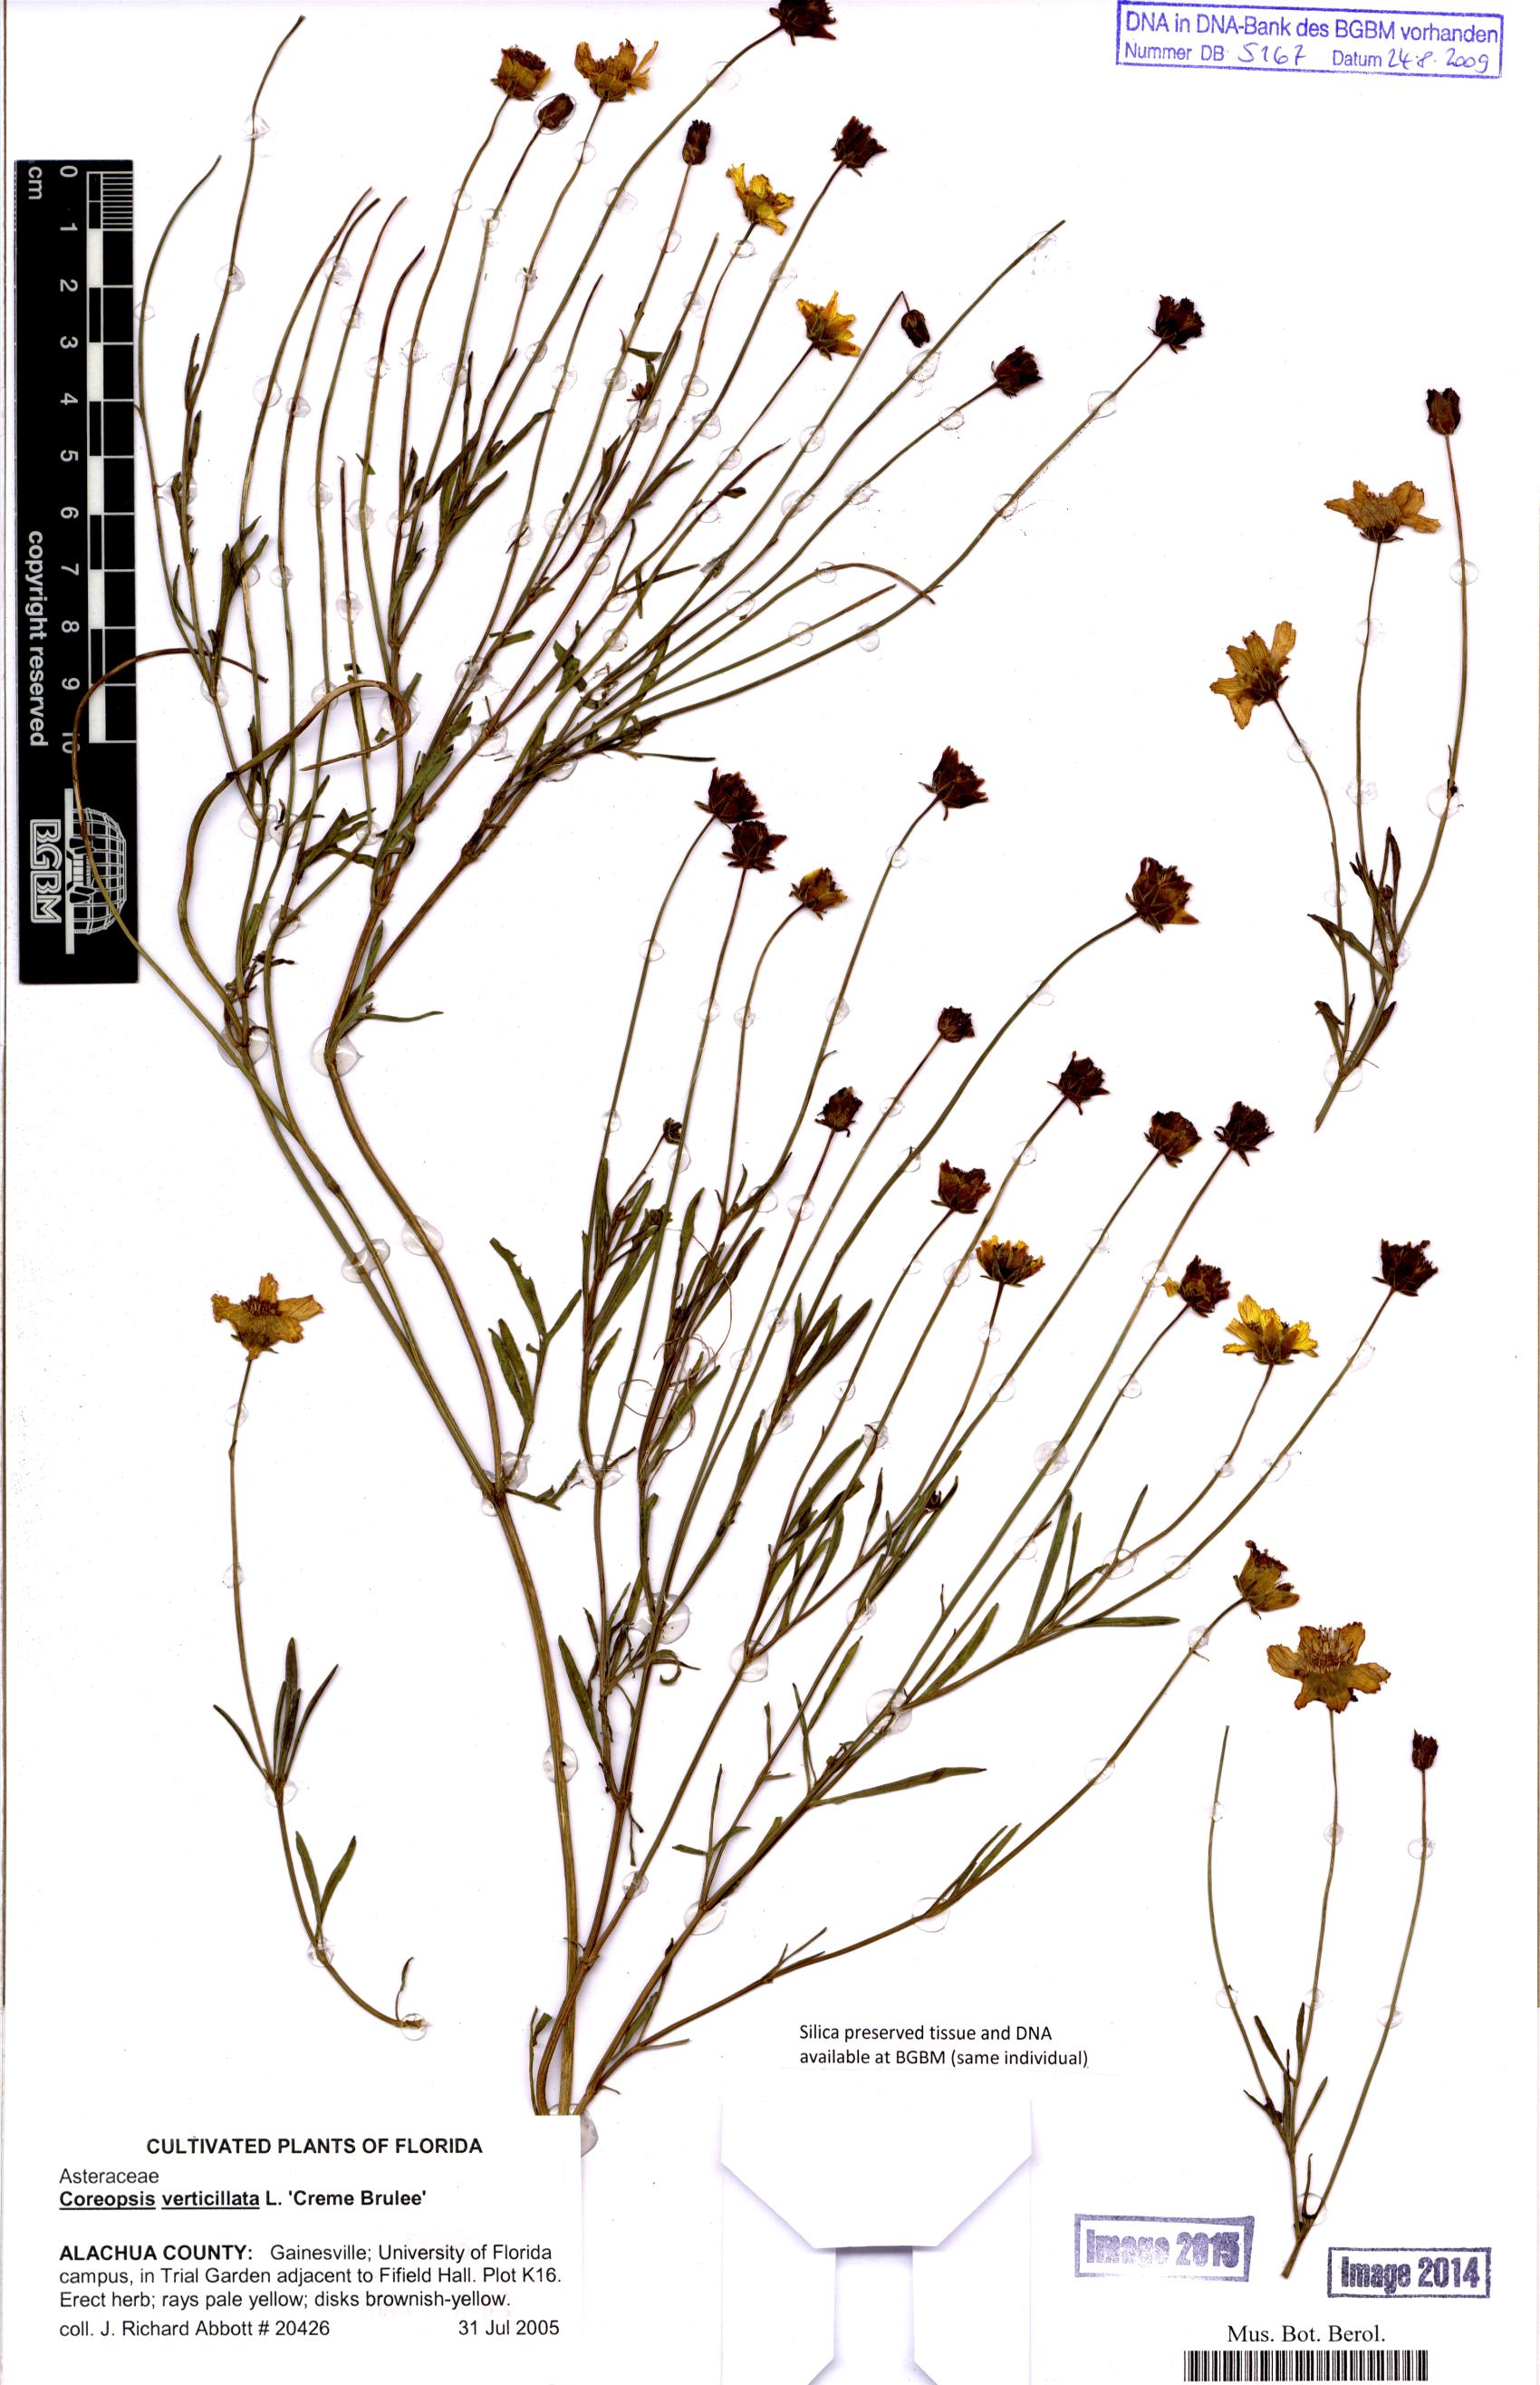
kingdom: Plantae
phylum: Tracheophyta
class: Magnoliopsida
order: Asterales
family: Asteraceae
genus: Coreopsis
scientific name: Coreopsis verticillata
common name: Whorled tickseed
